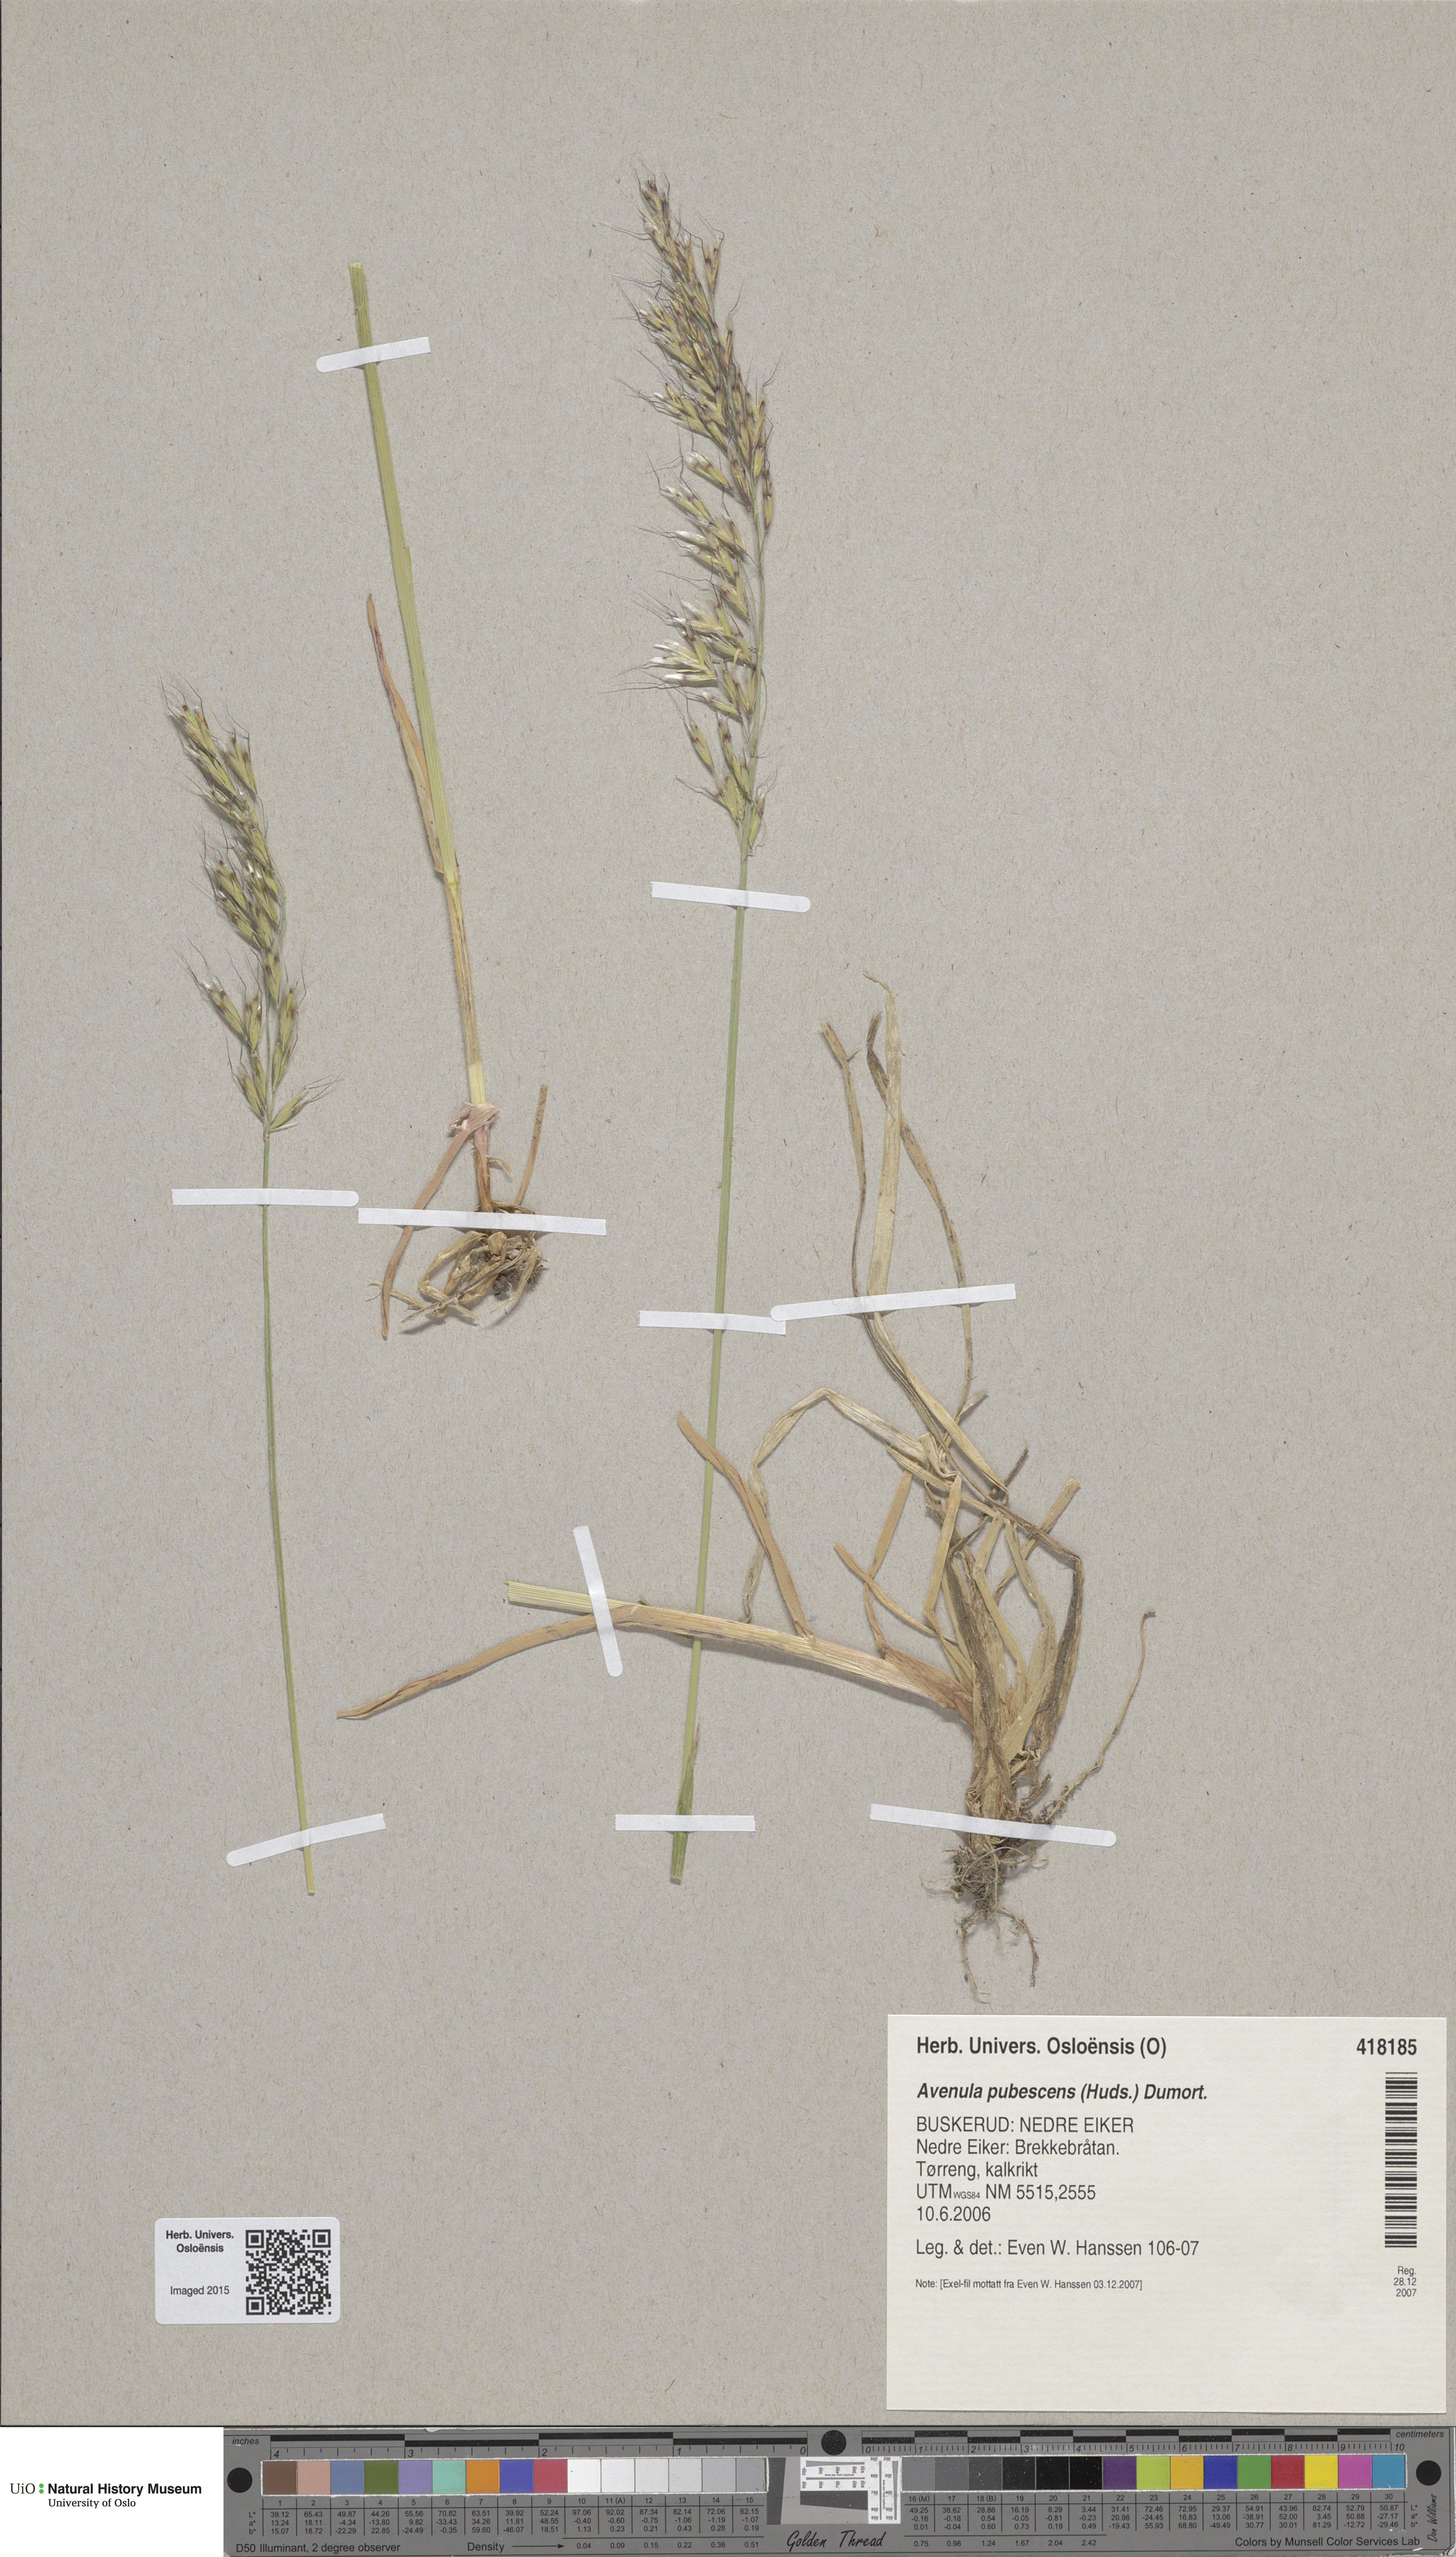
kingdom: Plantae
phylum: Tracheophyta
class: Liliopsida
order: Poales
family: Poaceae
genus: Avenula
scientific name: Avenula pubescens
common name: Downy alpine oatgrass
